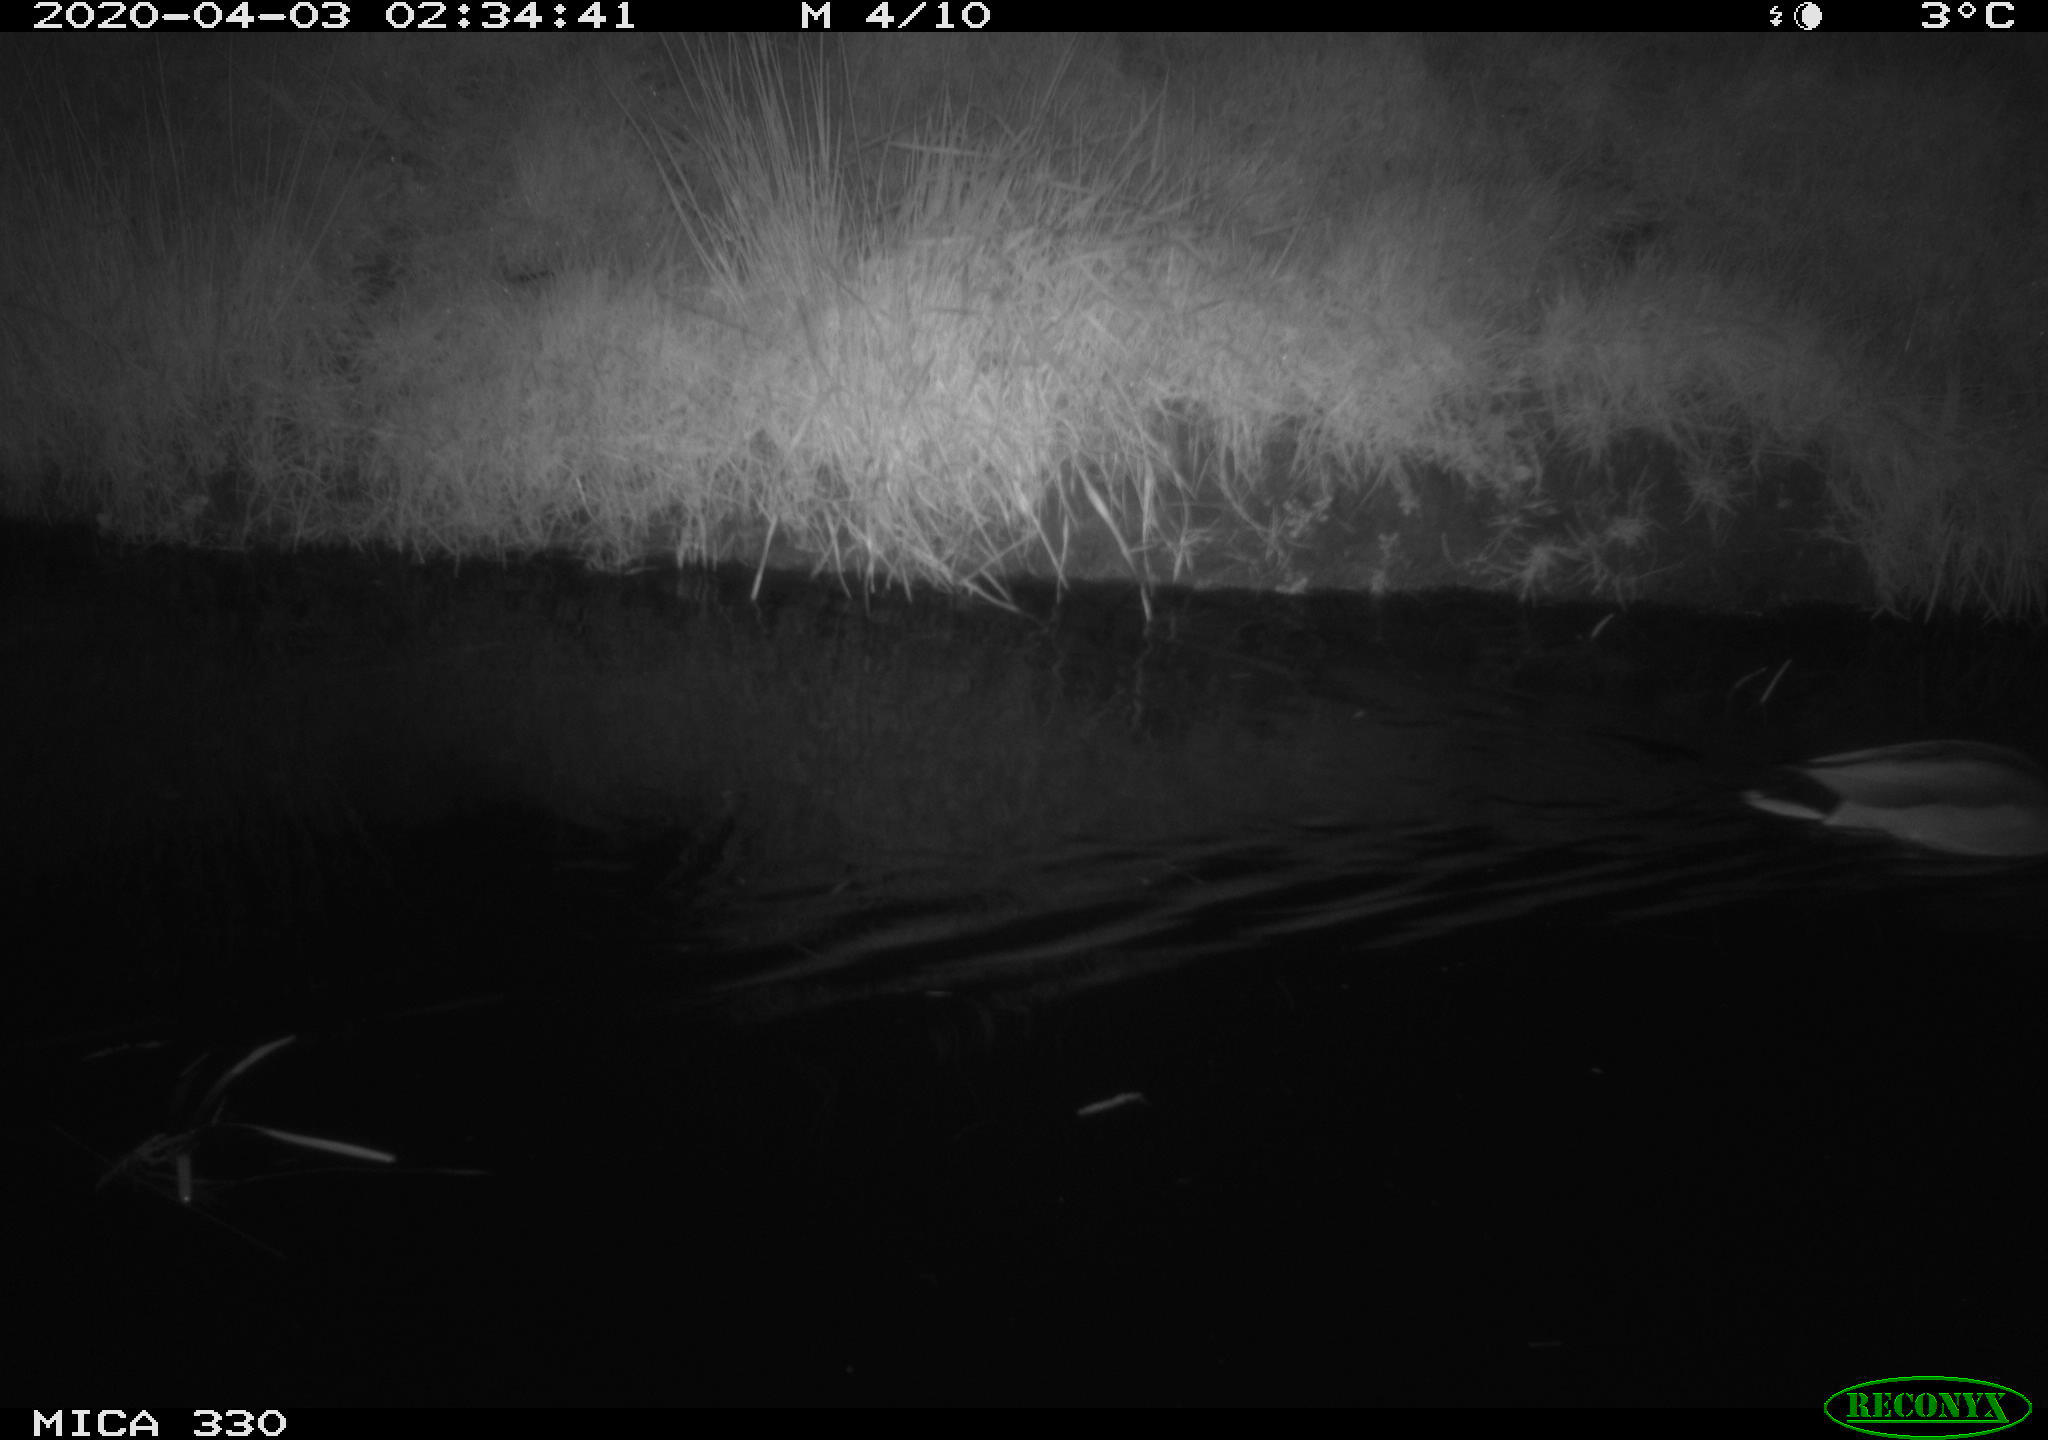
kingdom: Animalia
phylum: Chordata
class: Aves
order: Anseriformes
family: Anatidae
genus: Anas
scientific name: Anas platyrhynchos
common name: Mallard
